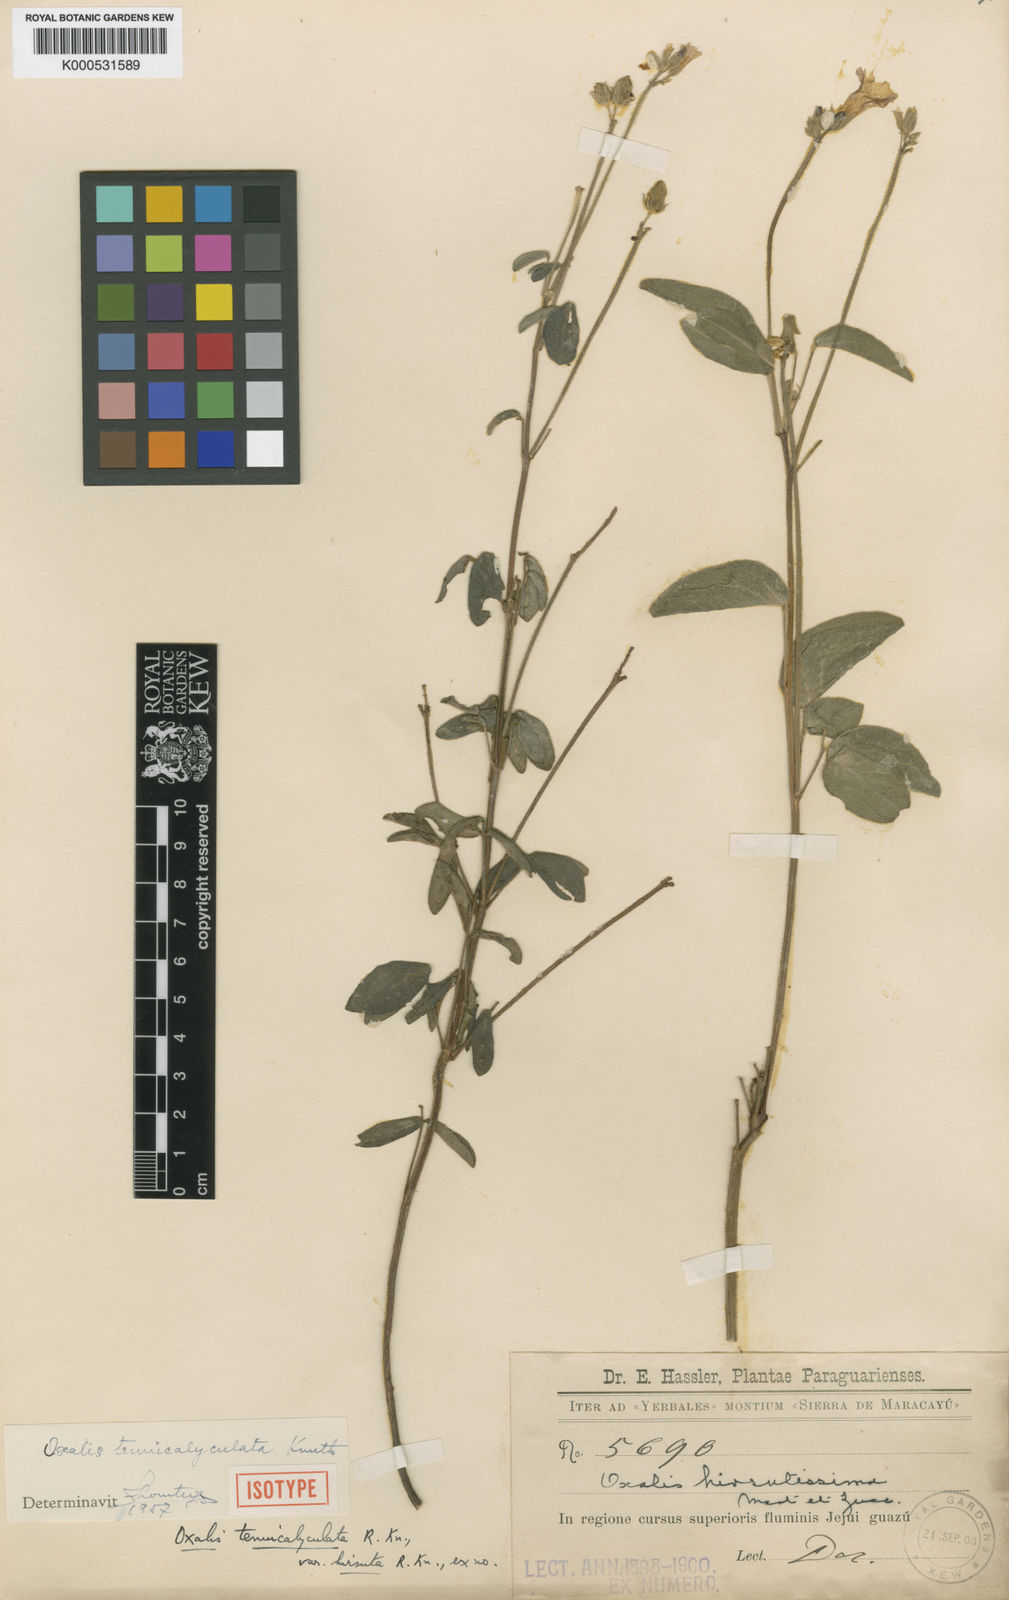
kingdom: Plantae
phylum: Tracheophyta
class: Magnoliopsida
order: Oxalidales
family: Oxalidaceae
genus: Oxalis
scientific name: Oxalis sellowii
